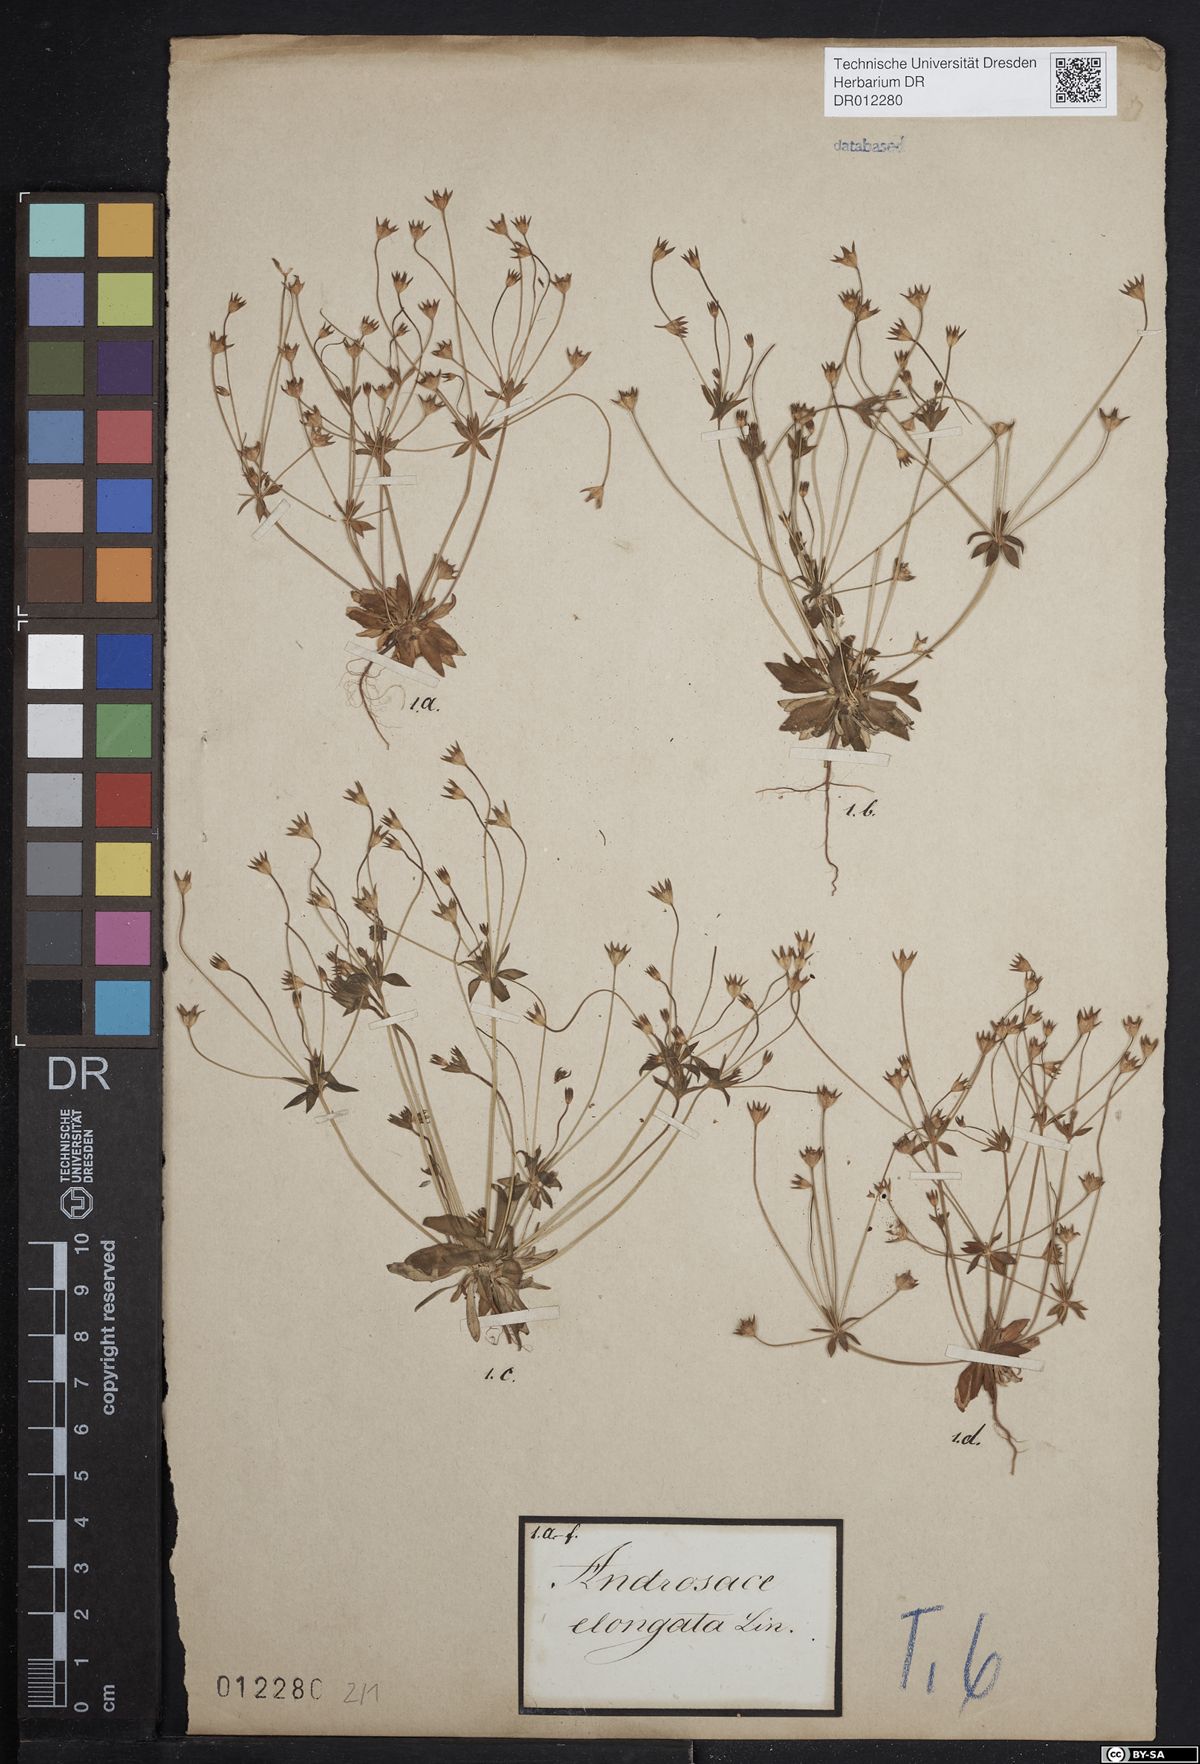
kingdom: Plantae
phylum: Tracheophyta
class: Magnoliopsida
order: Ericales
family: Primulaceae
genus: Androsace
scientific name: Androsace elongata
